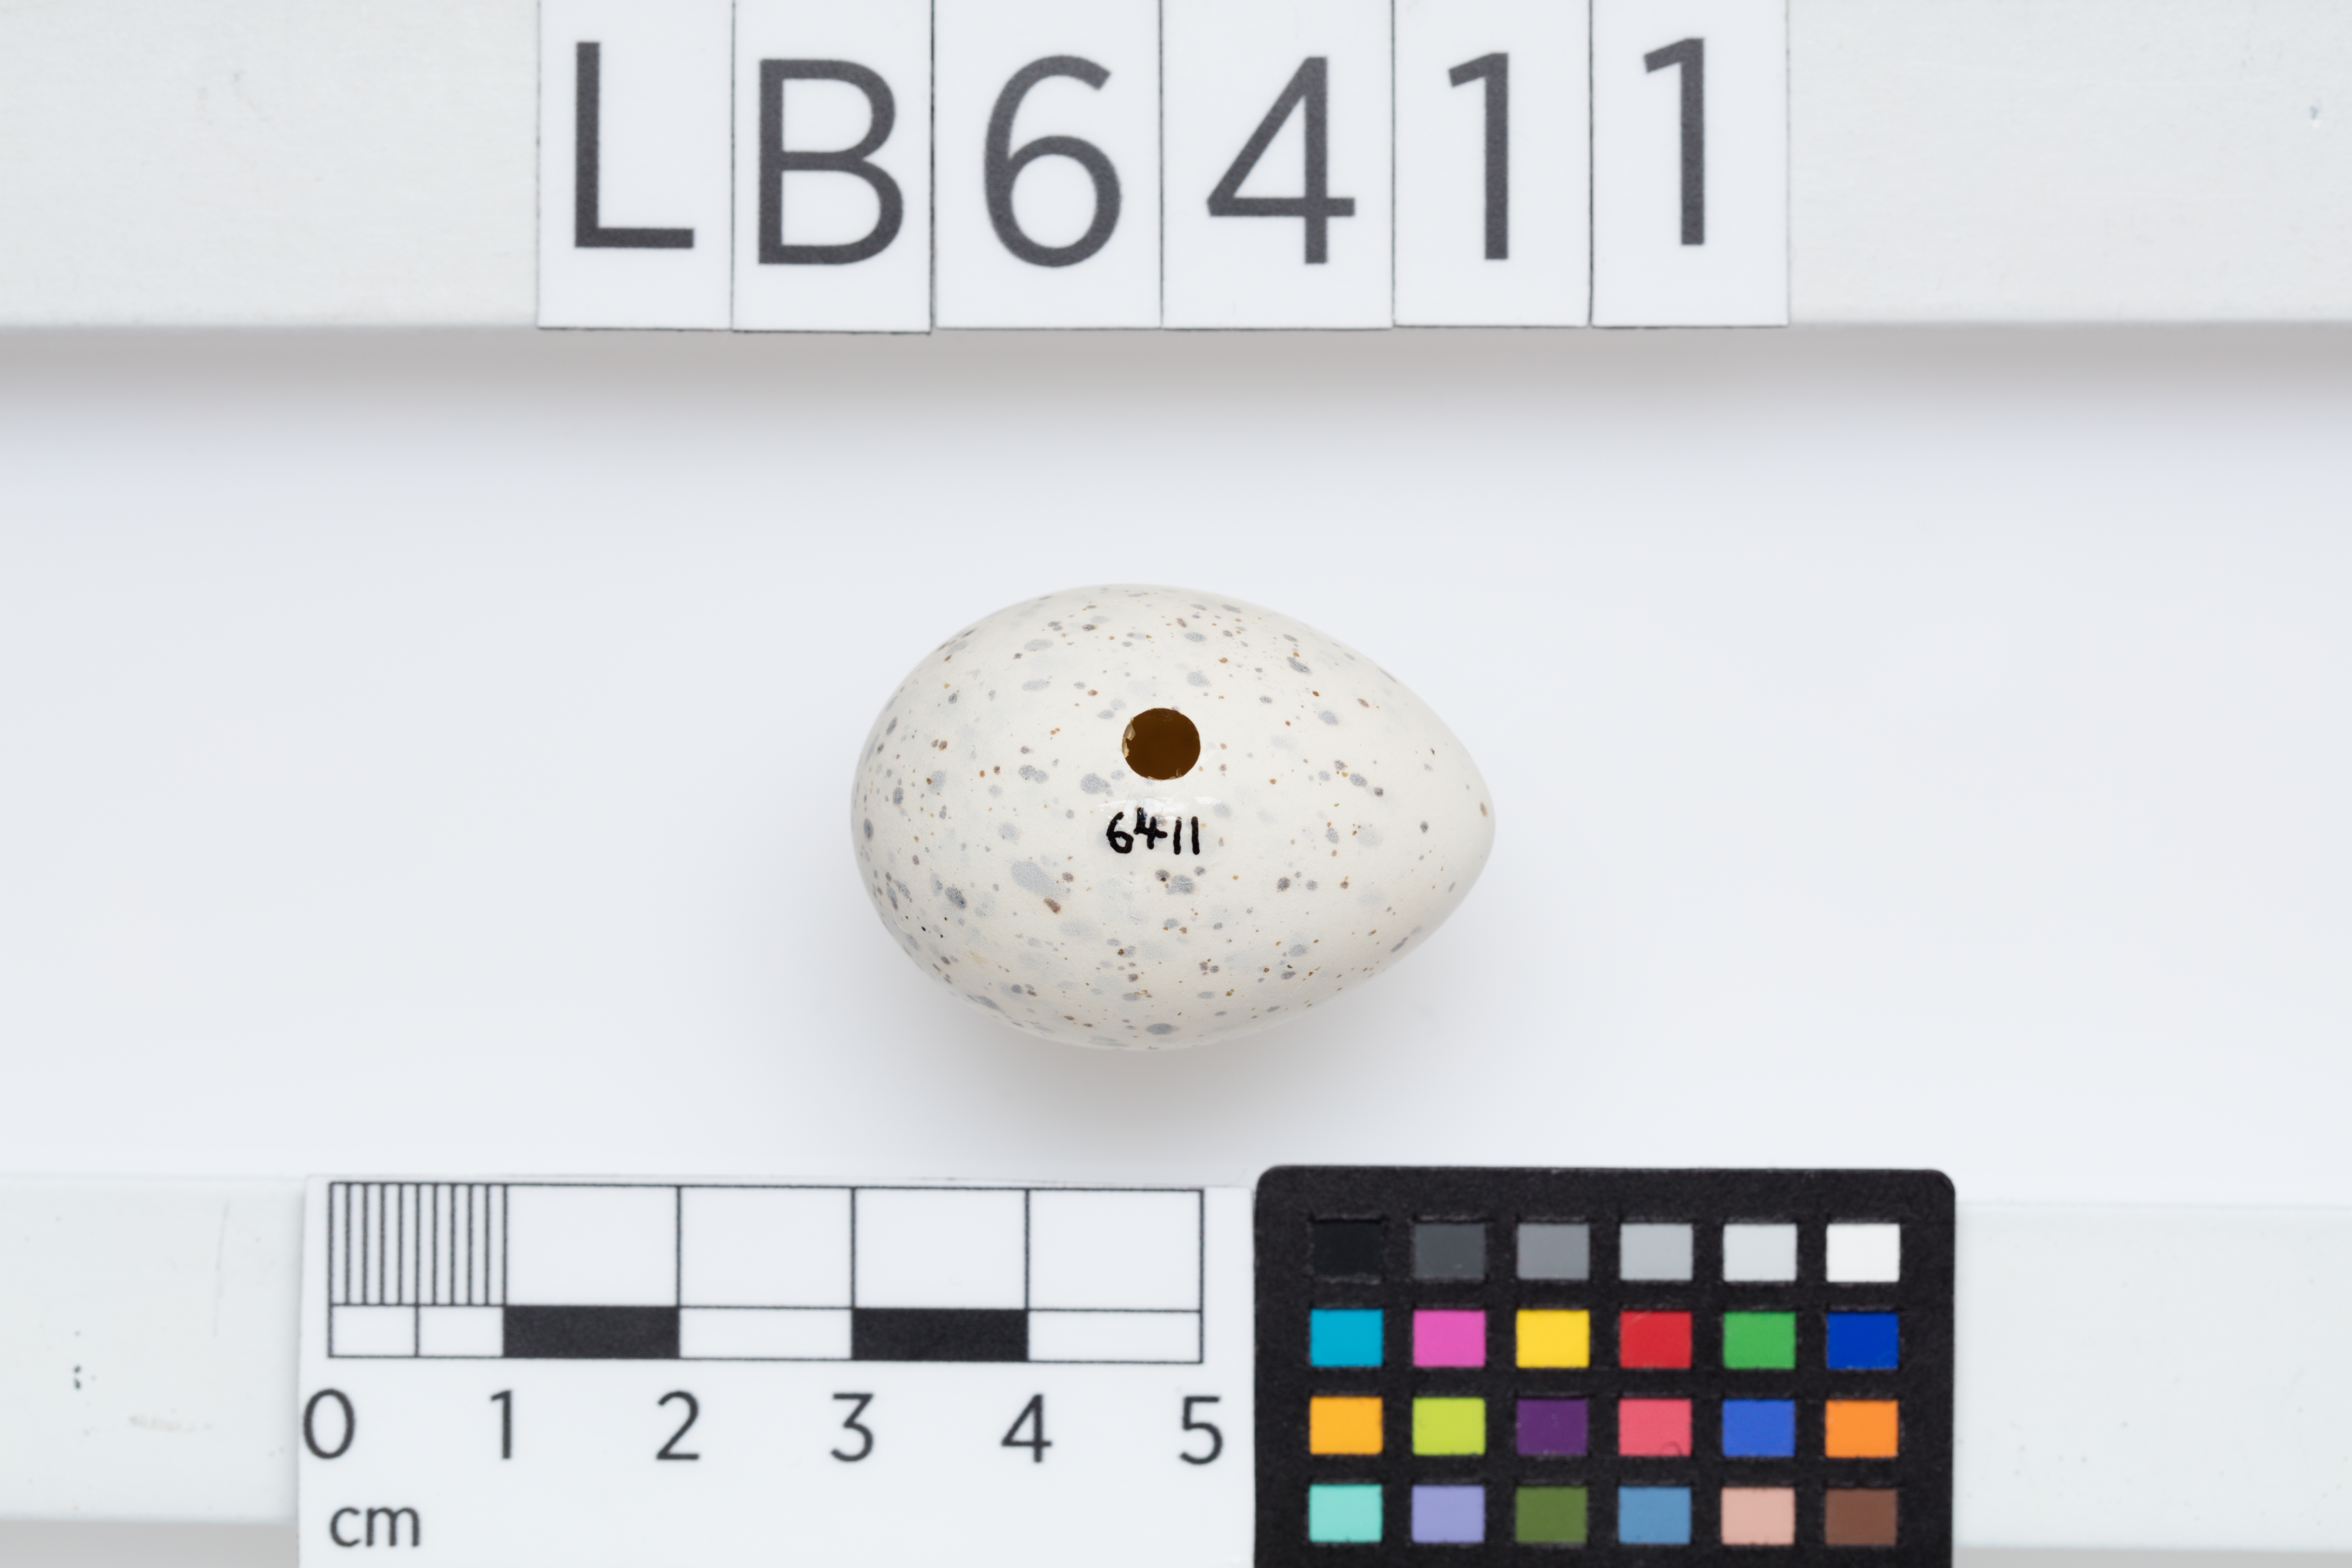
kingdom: Animalia
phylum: Chordata
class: Aves
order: Charadriiformes
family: Laridae
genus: Sternula
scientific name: Sternula nereis
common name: Fairy tern
